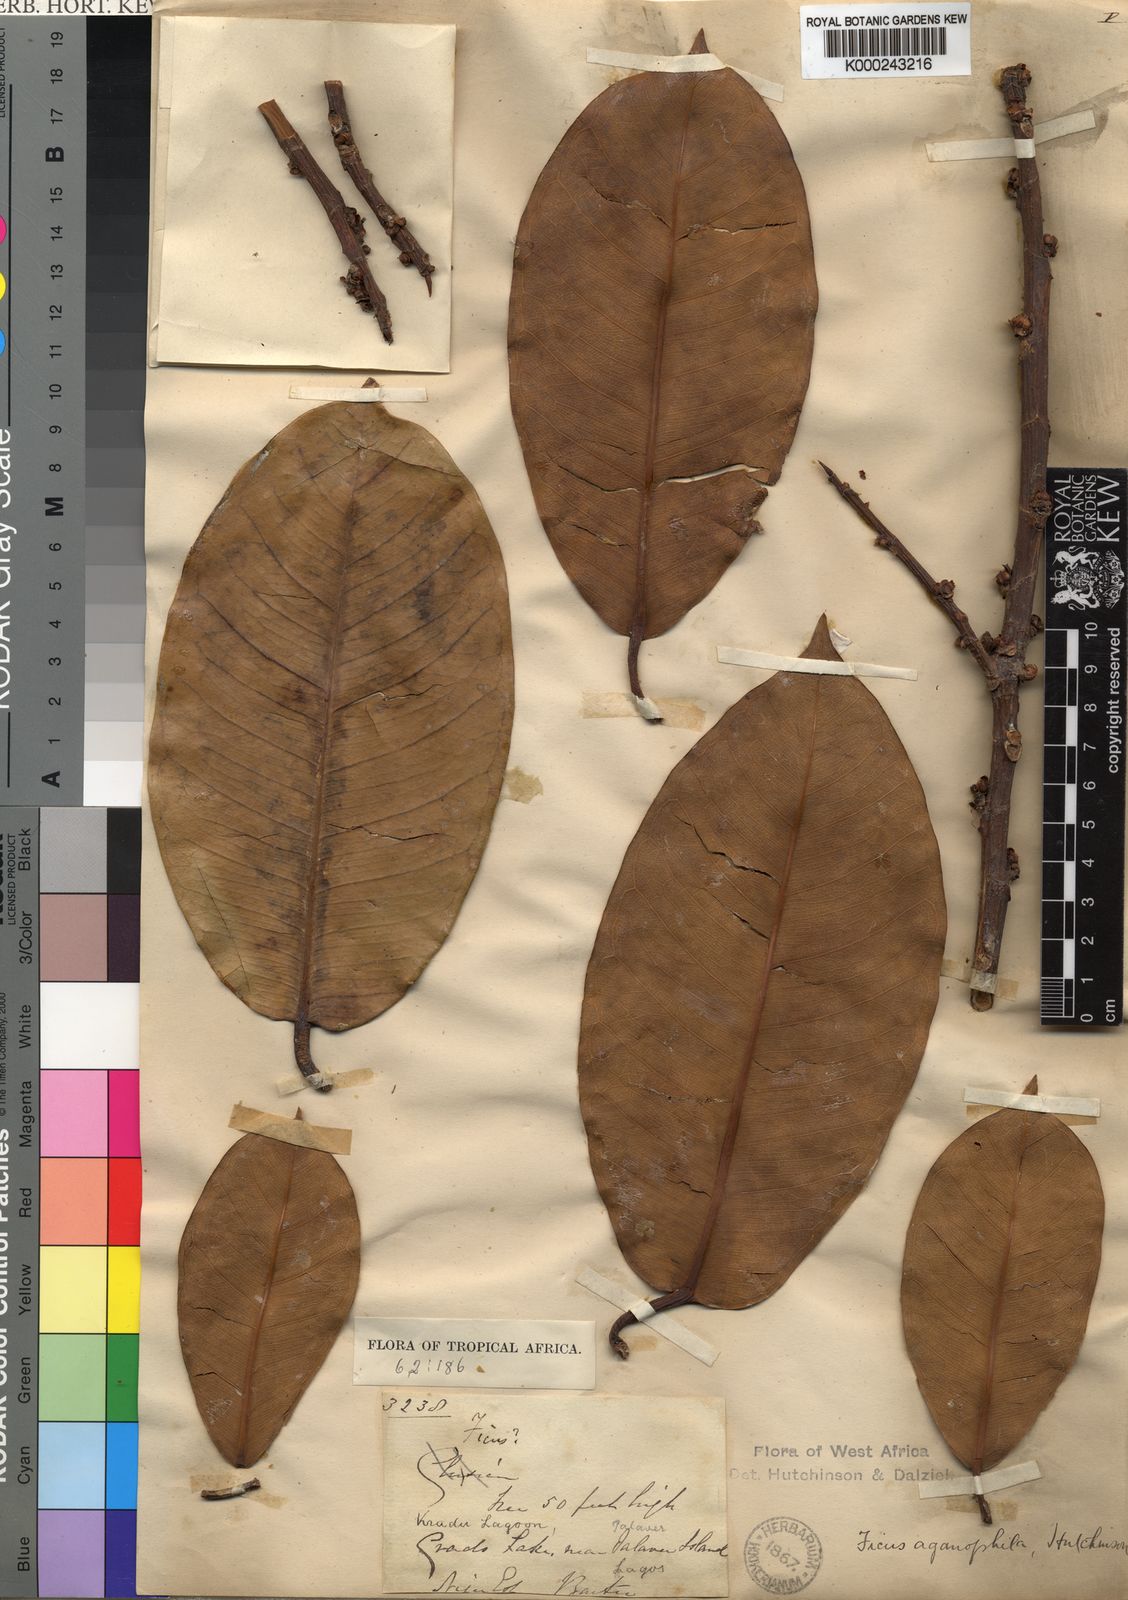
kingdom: Plantae
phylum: Tracheophyta
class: Magnoliopsida
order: Rosales
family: Moraceae
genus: Ficus
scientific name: Ficus adolphi-friderici
